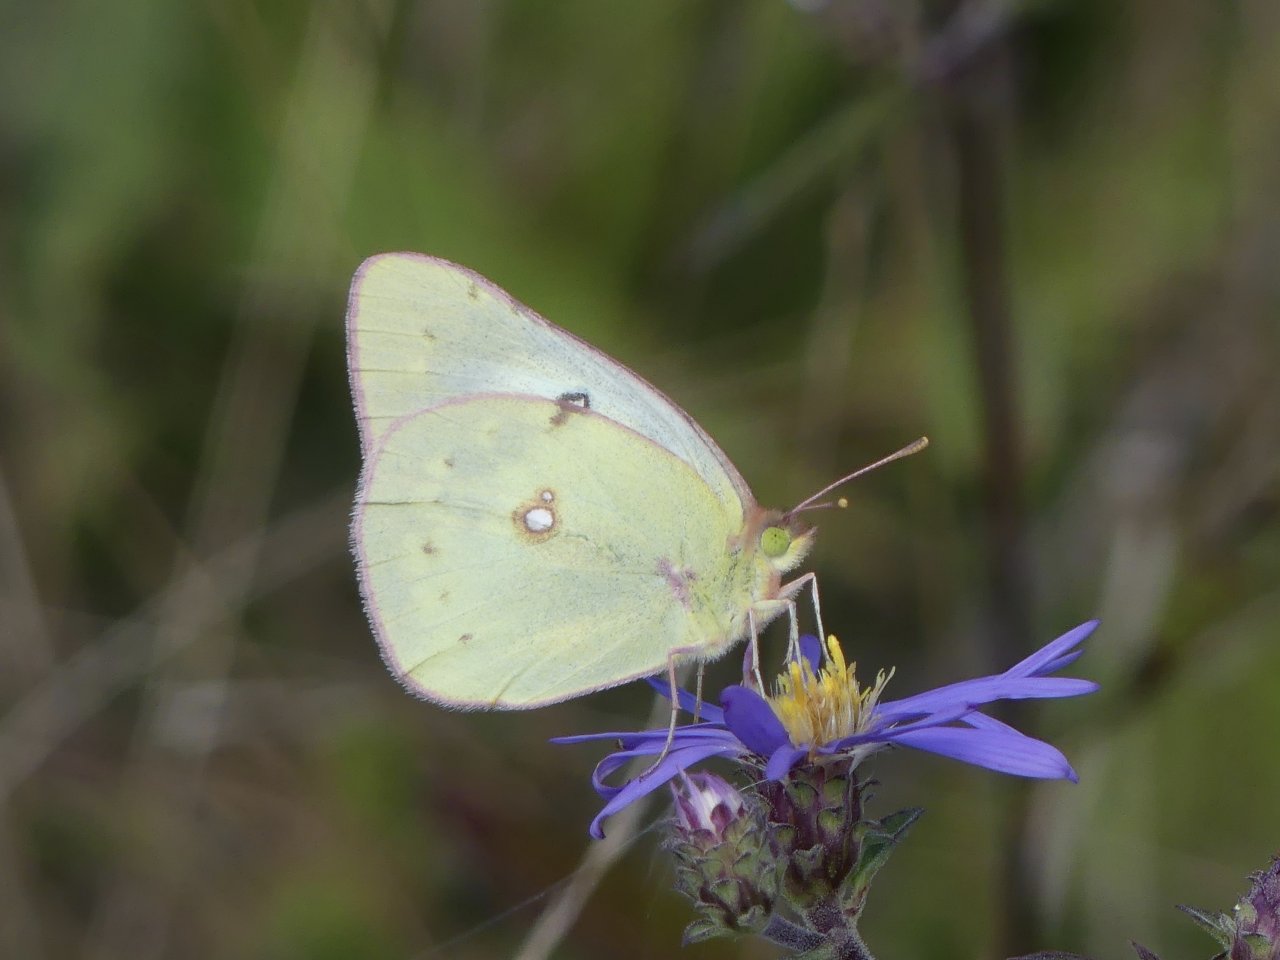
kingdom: Animalia
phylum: Arthropoda
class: Insecta
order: Lepidoptera
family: Pieridae
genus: Colias
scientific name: Colias philodice
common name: Clouded Sulphur
